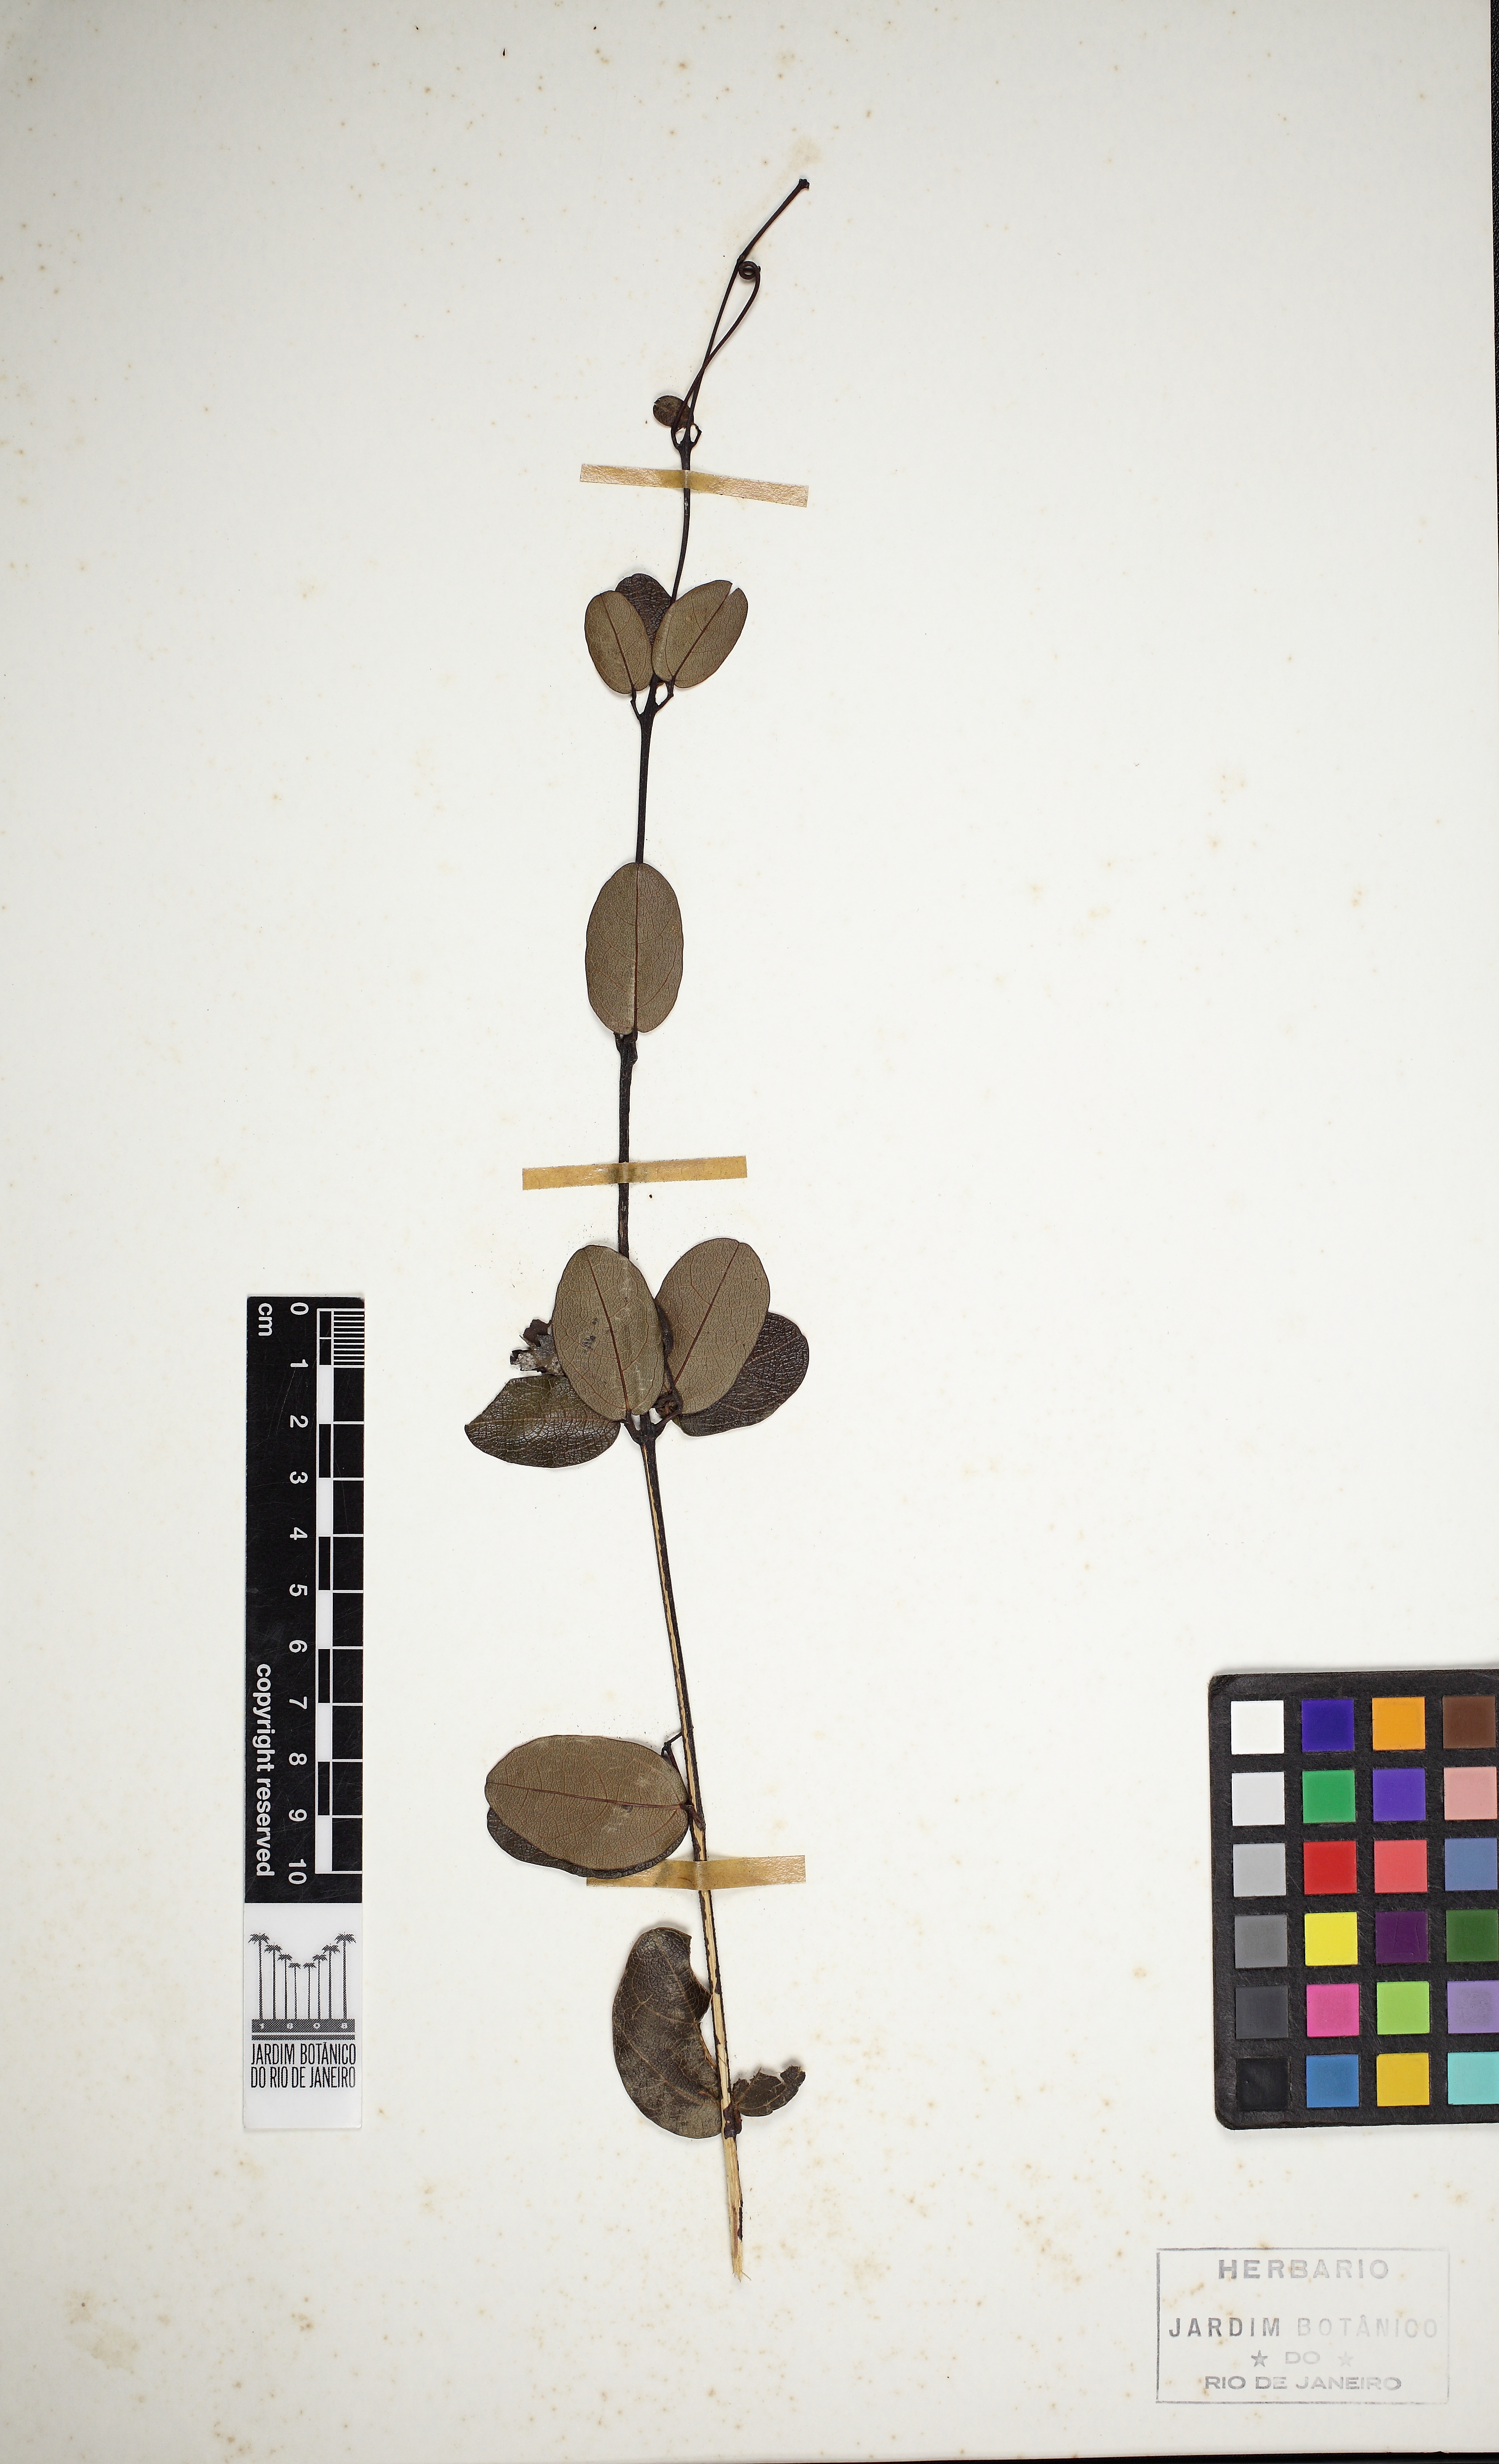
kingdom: Plantae
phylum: Tracheophyta
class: Magnoliopsida
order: Lamiales
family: Bignoniaceae
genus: Fridericia
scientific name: Fridericia craterophora
